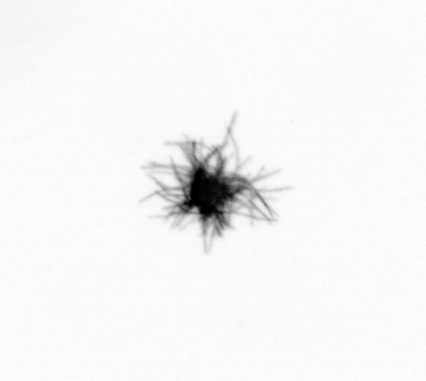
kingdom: Bacteria
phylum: Cyanobacteria
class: Cyanobacteriia
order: Cyanobacteriales
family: Microcoleaceae
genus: Trichodesmium
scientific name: Trichodesmium
